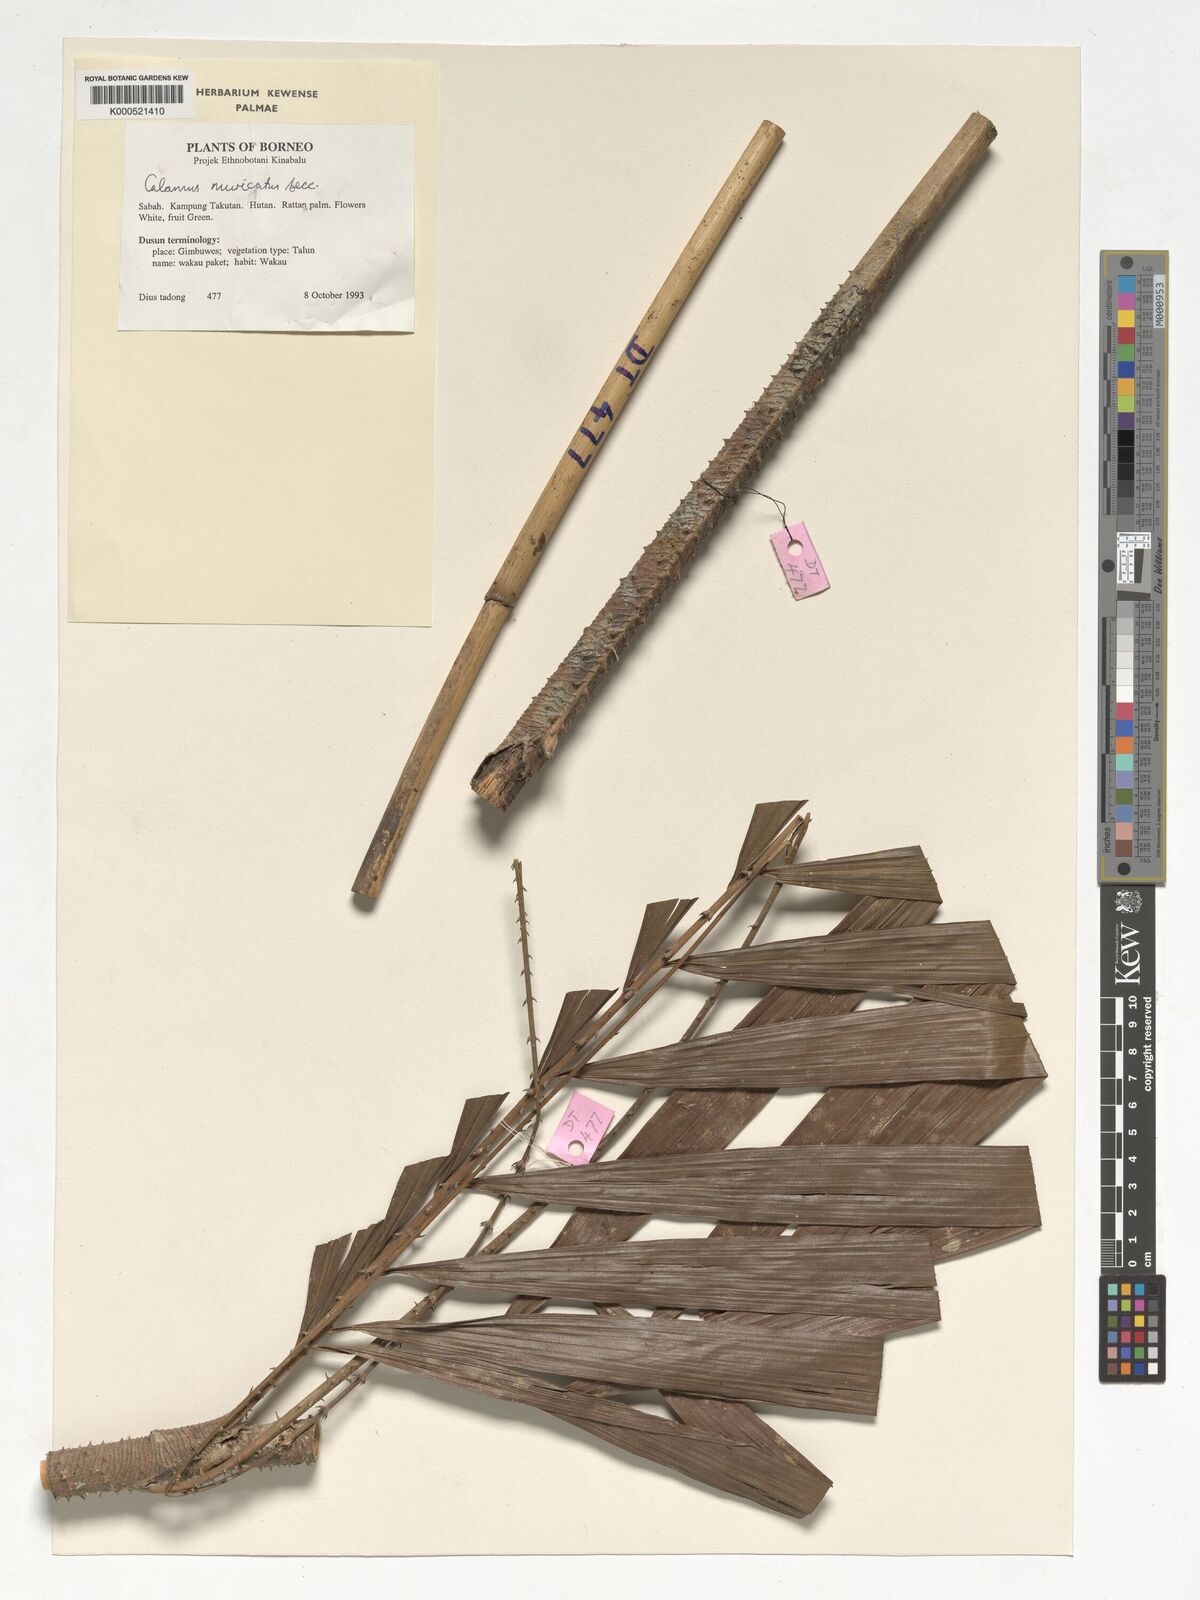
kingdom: Plantae
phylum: Tracheophyta
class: Liliopsida
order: Arecales
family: Arecaceae
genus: Calamus
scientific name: Calamus muricatus
